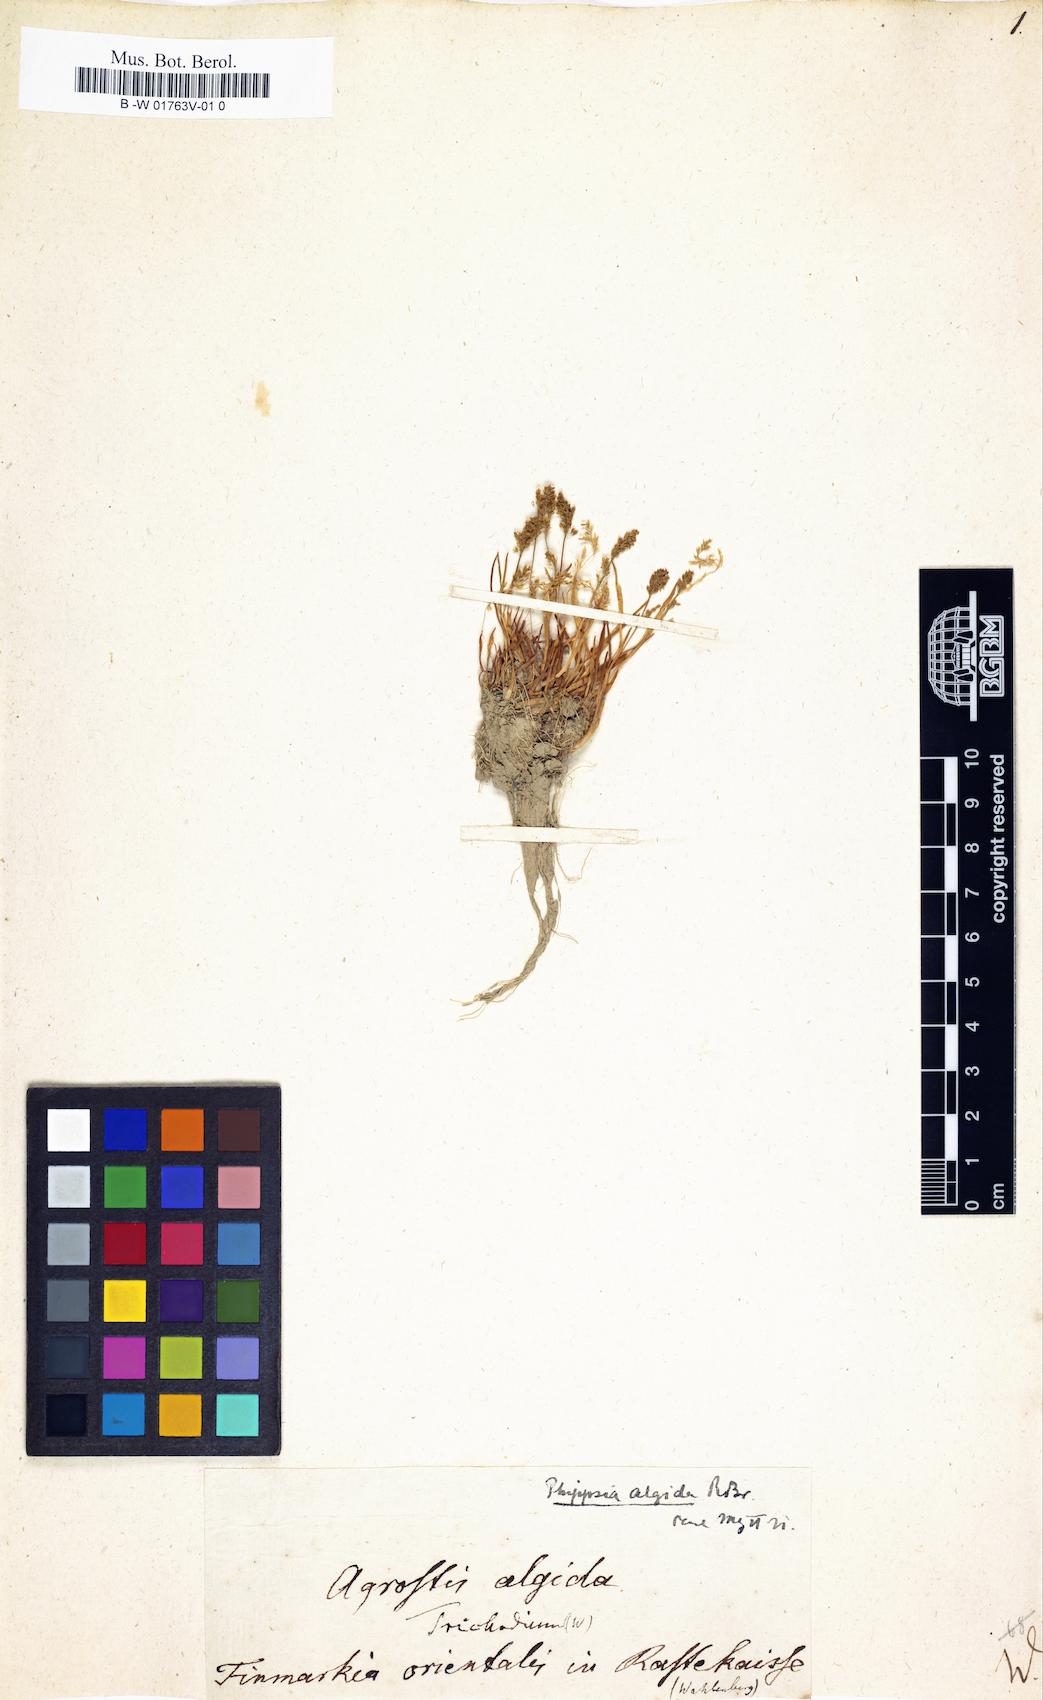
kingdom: Plantae
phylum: Tracheophyta
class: Liliopsida
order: Poales
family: Poaceae
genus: Phippsia
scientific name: Phippsia algida
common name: Ice grass
